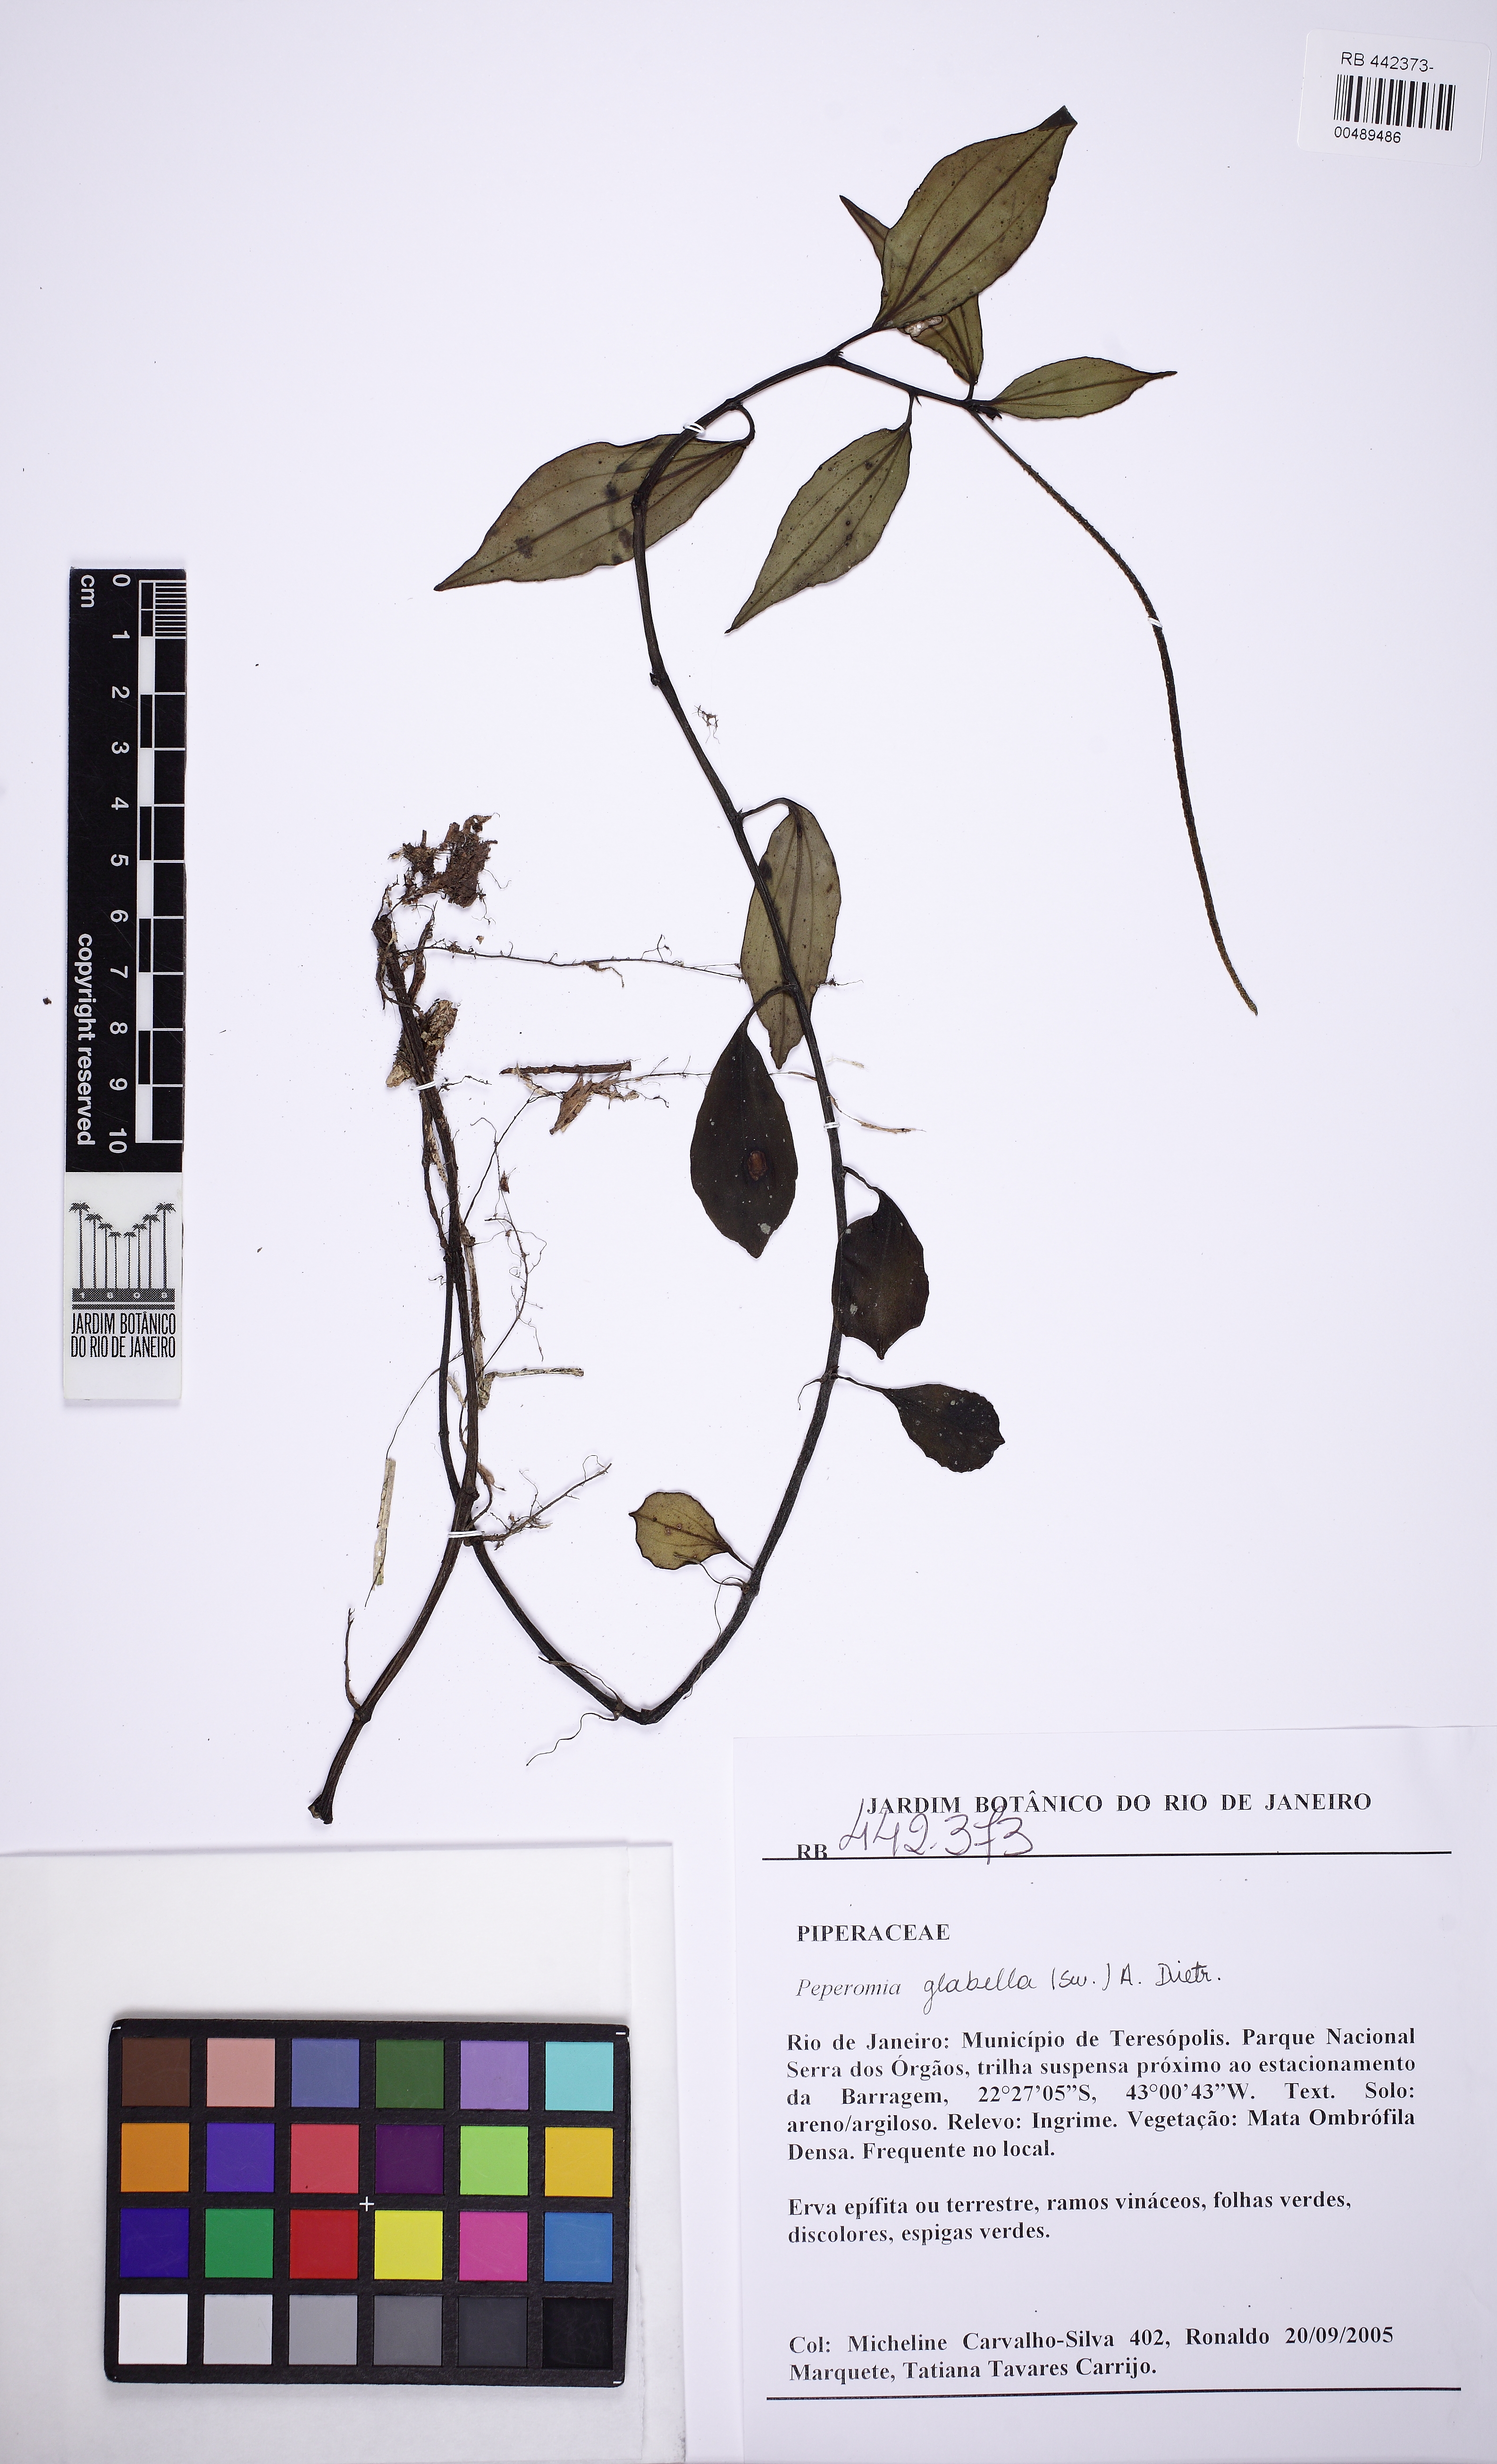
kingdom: Plantae
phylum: Tracheophyta
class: Magnoliopsida
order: Piperales
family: Piperaceae
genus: Peperomia
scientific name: Peperomia glabella
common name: Cypress peperomia
